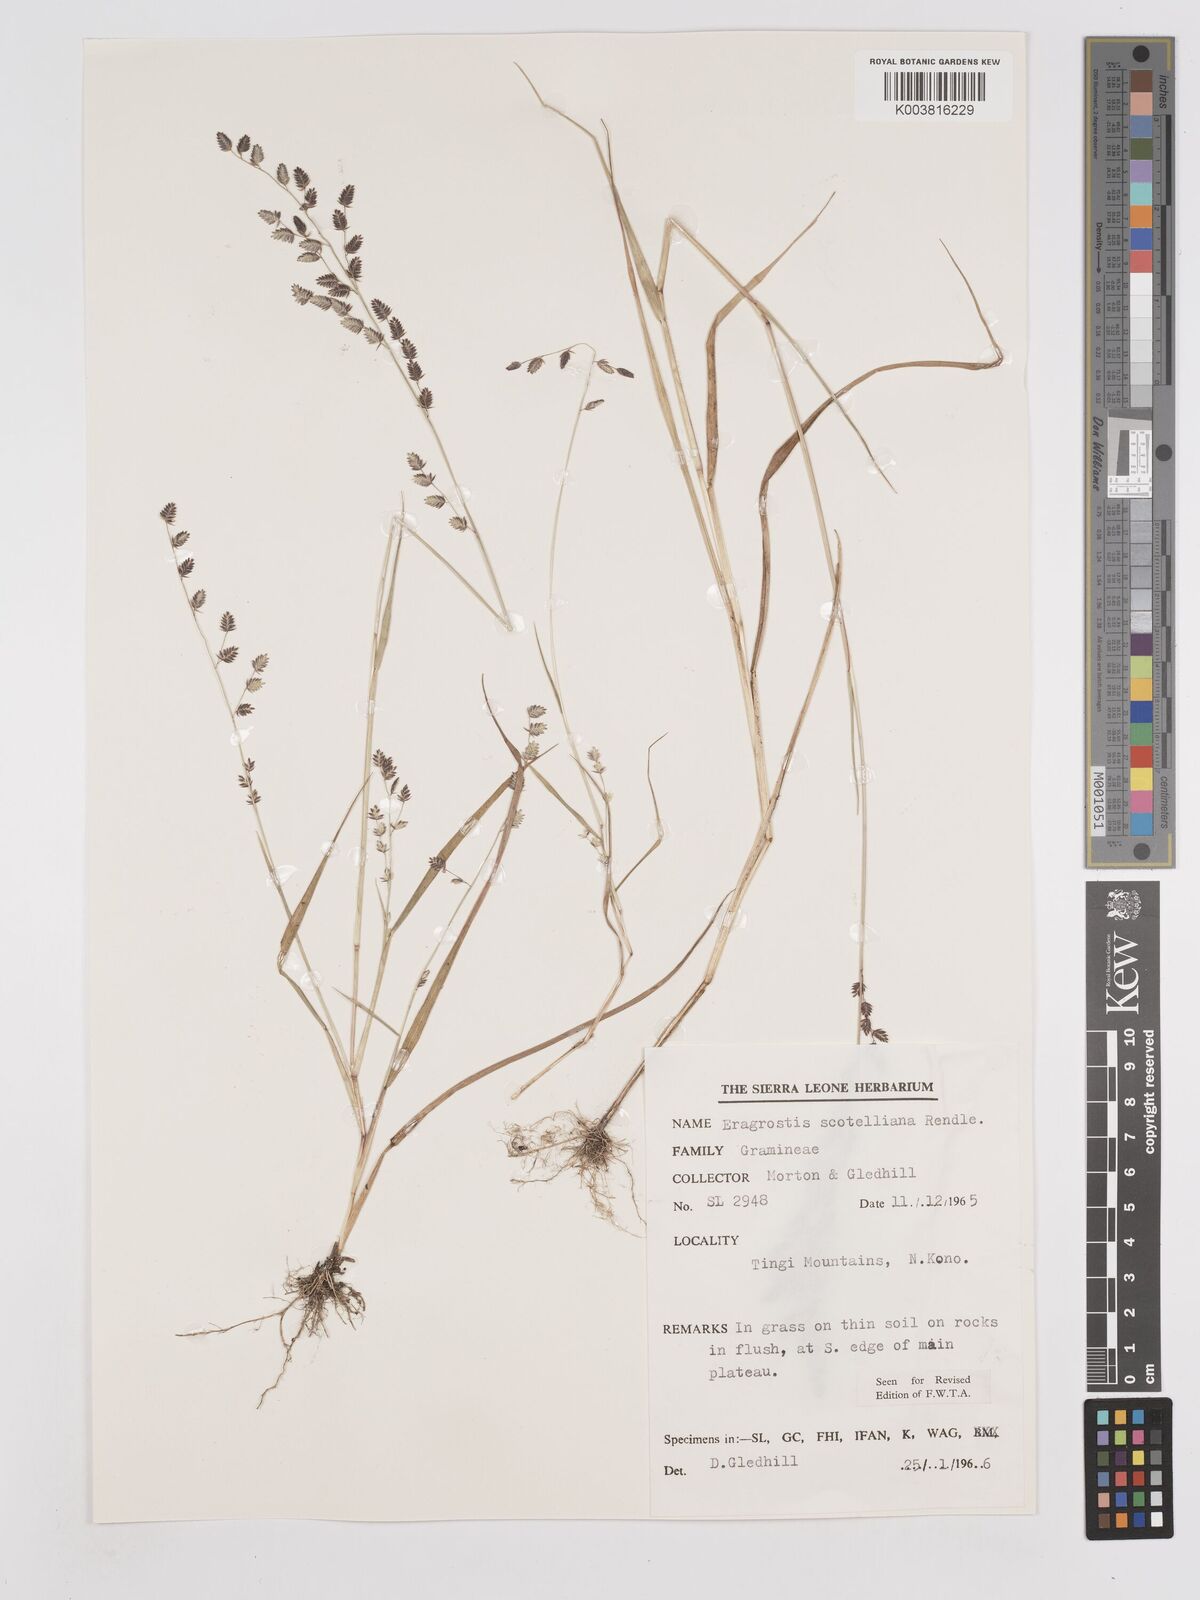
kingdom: Plantae
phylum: Tracheophyta
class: Liliopsida
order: Poales
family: Poaceae
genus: Eragrostis
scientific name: Eragrostis scotelliana
